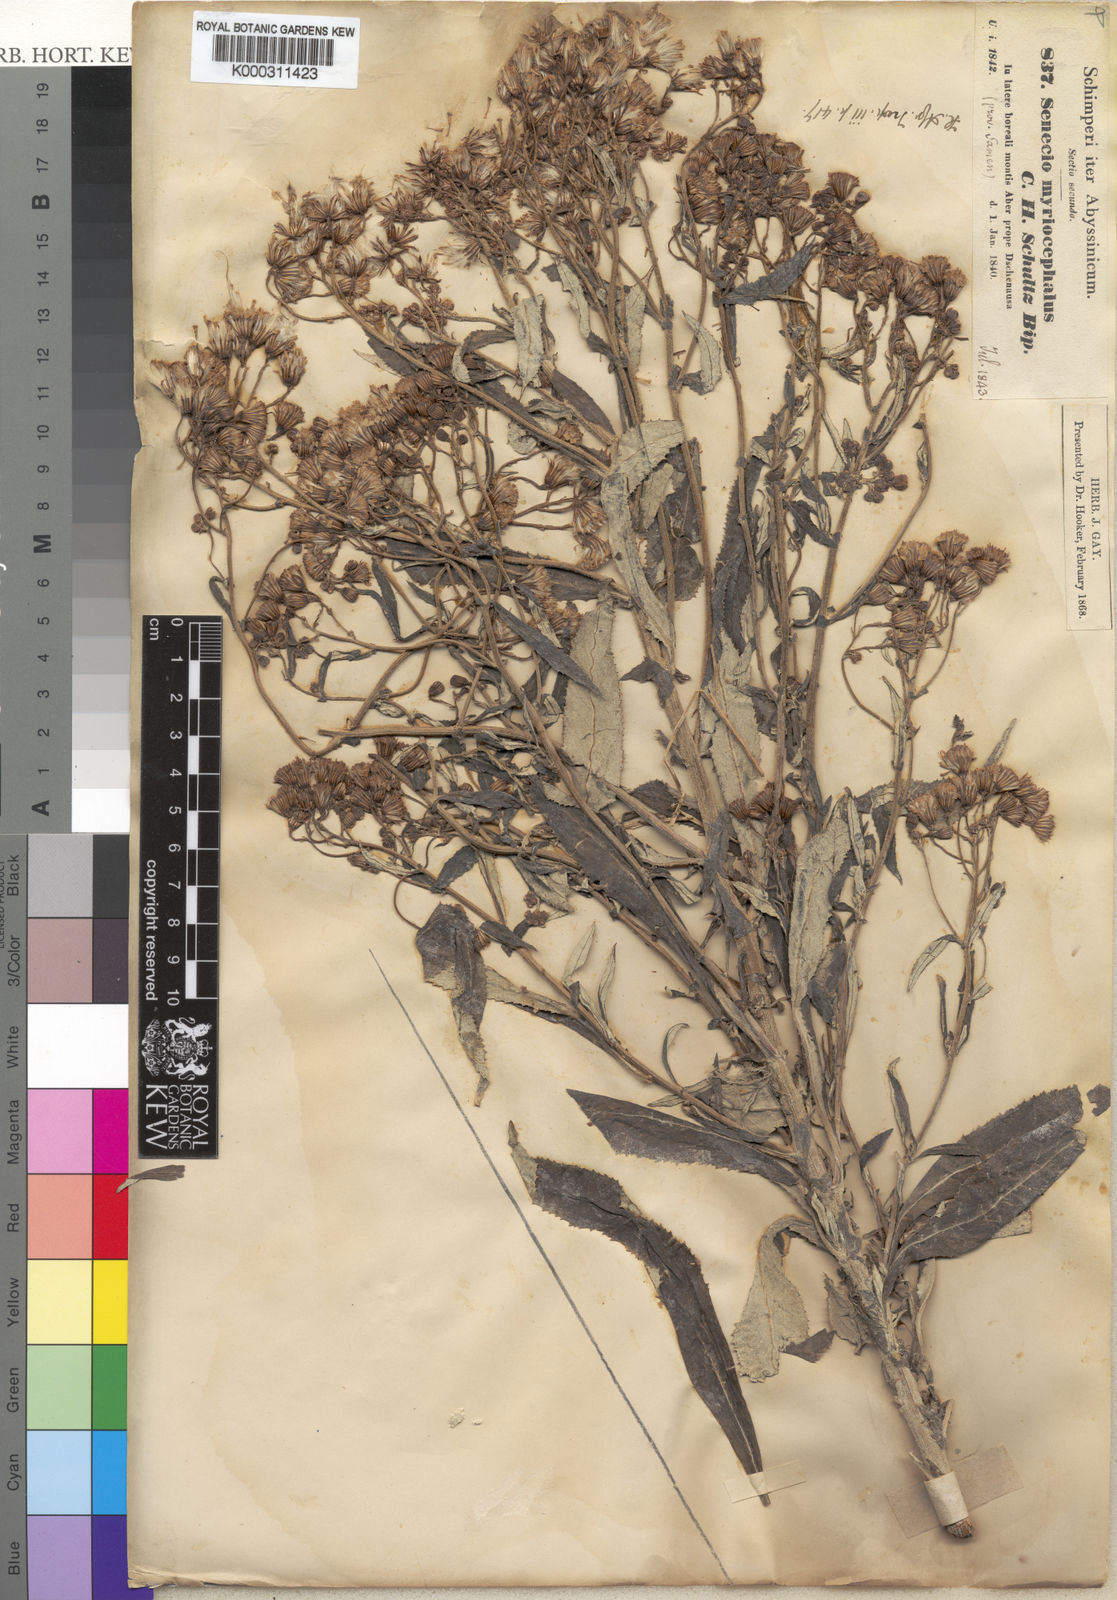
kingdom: Plantae
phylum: Tracheophyta
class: Magnoliopsida
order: Asterales
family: Asteraceae
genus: Senecio
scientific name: Senecio myriocephalus
